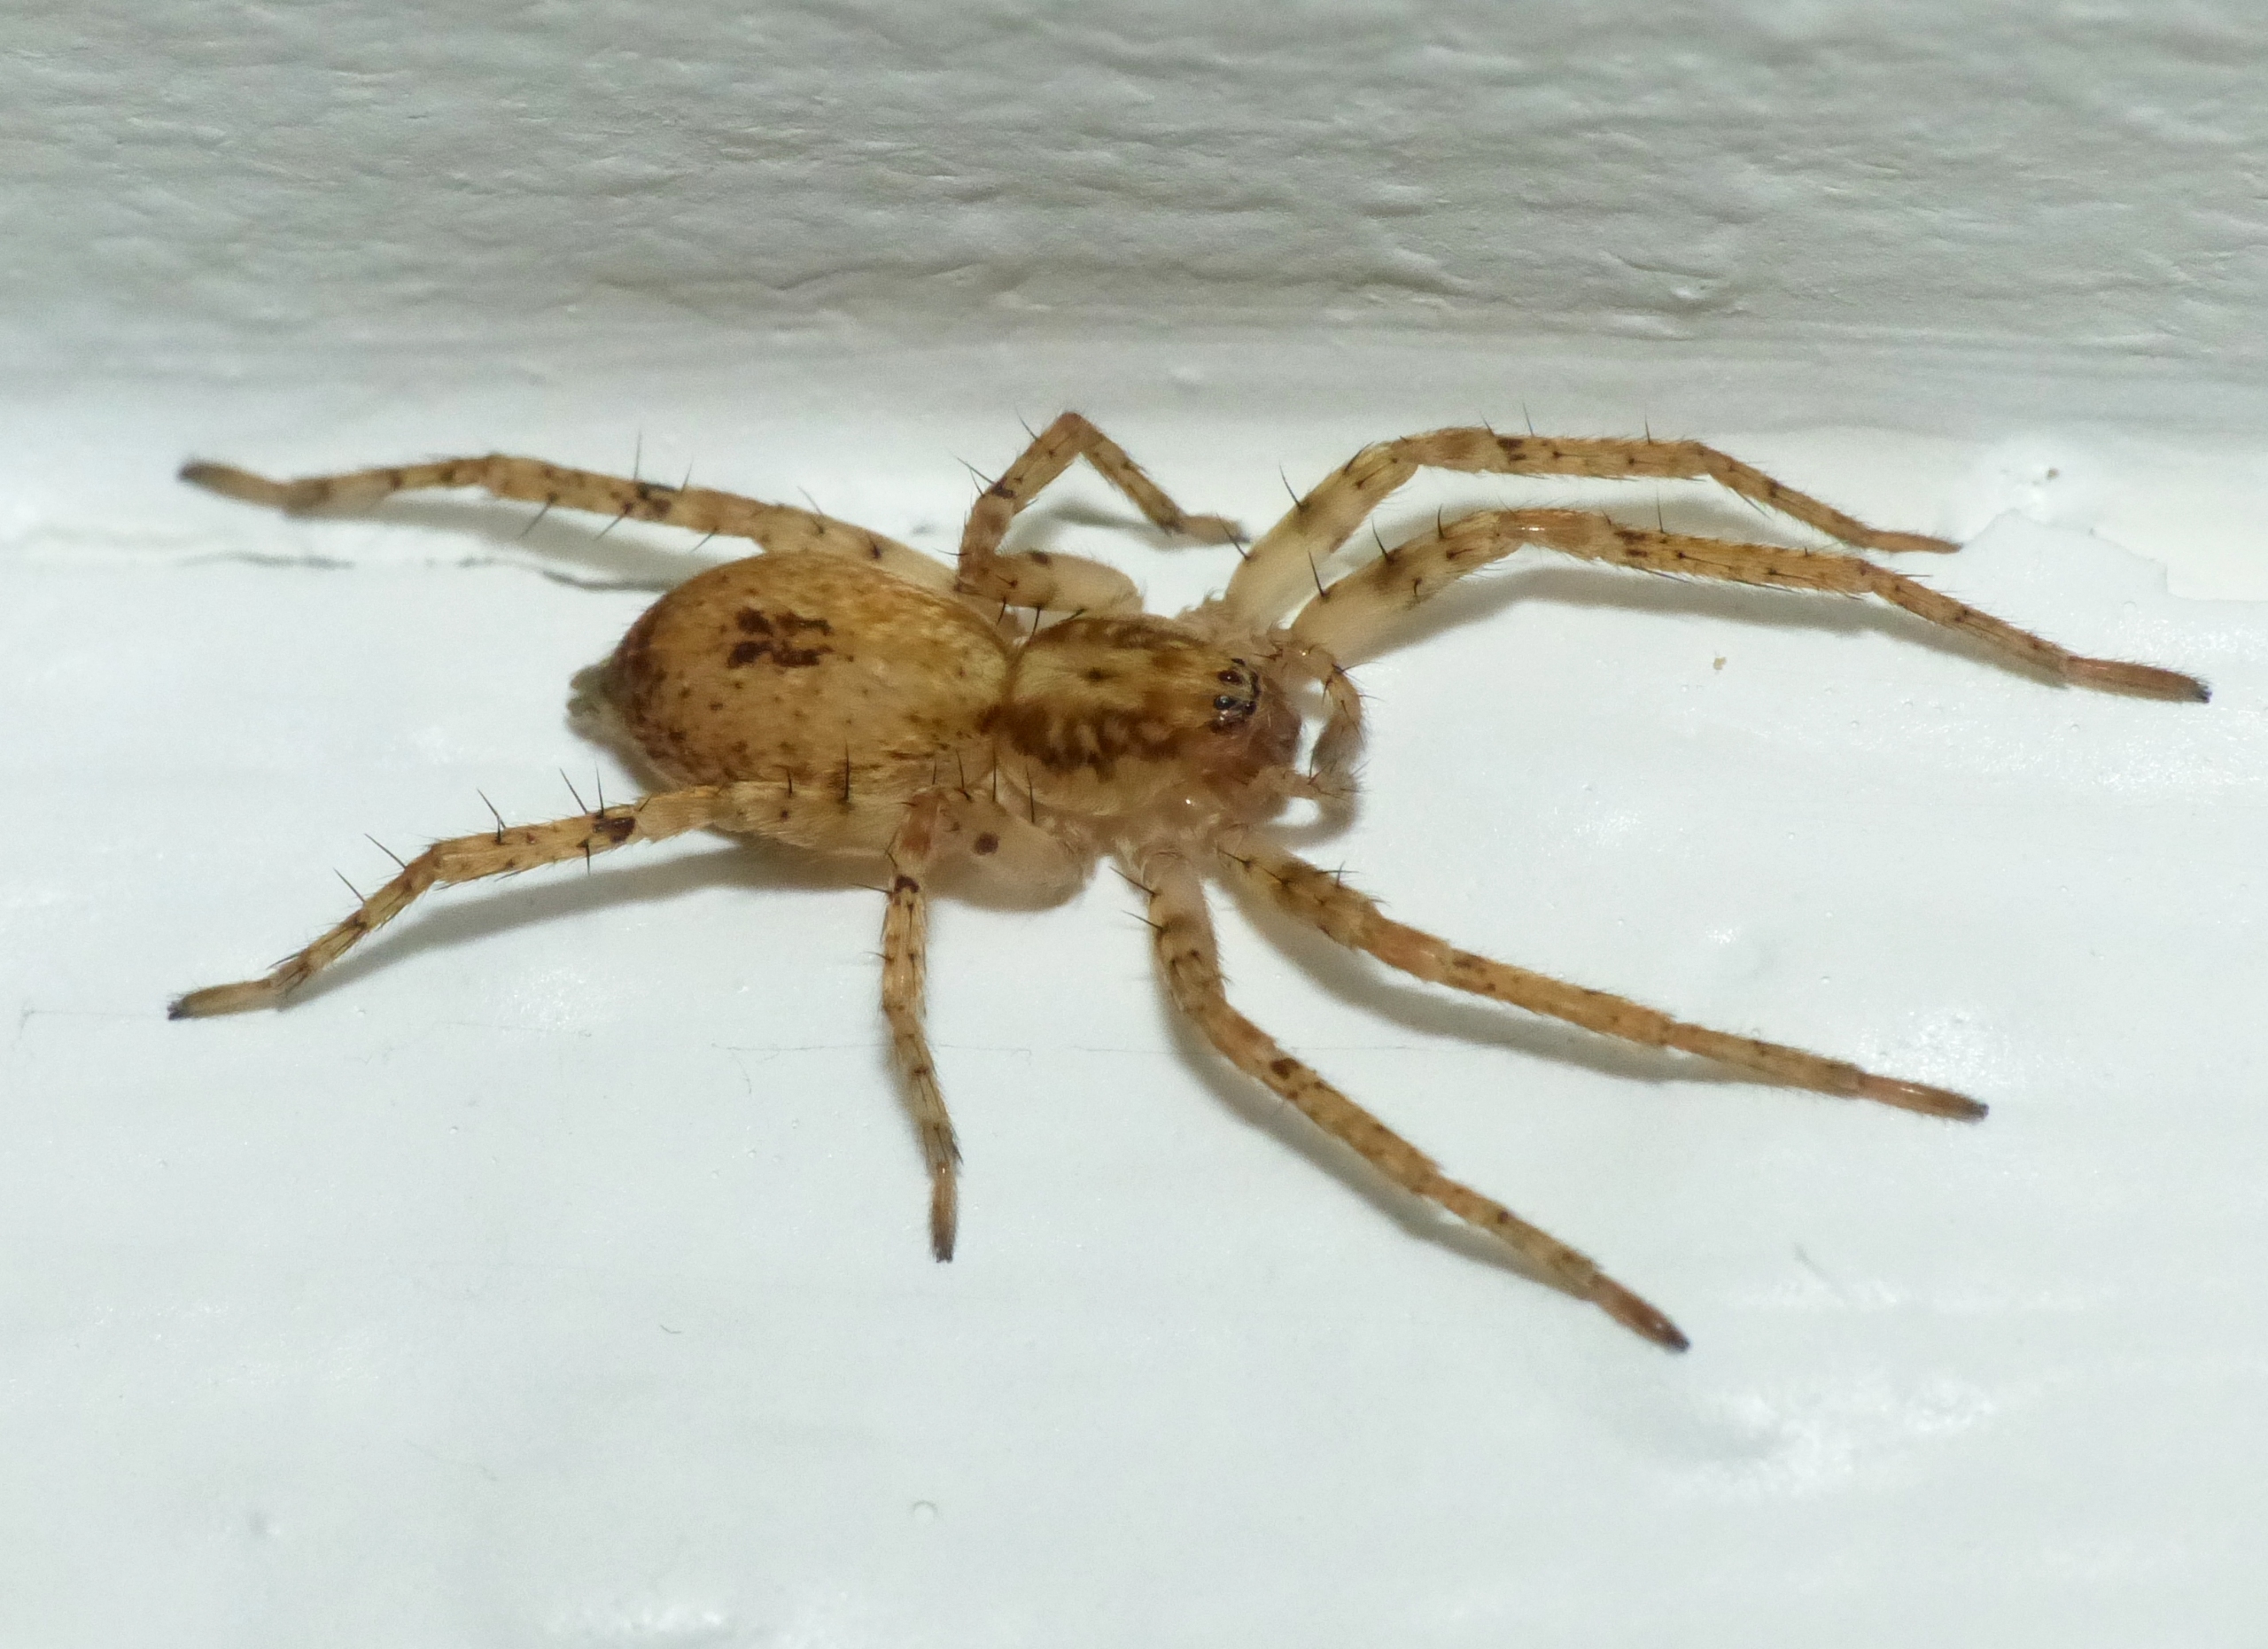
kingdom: Animalia
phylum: Arthropoda
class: Arachnida
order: Araneae
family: Anyphaenidae
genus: Anyphaena
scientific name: Anyphaena accentuata
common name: Summeedderkop
